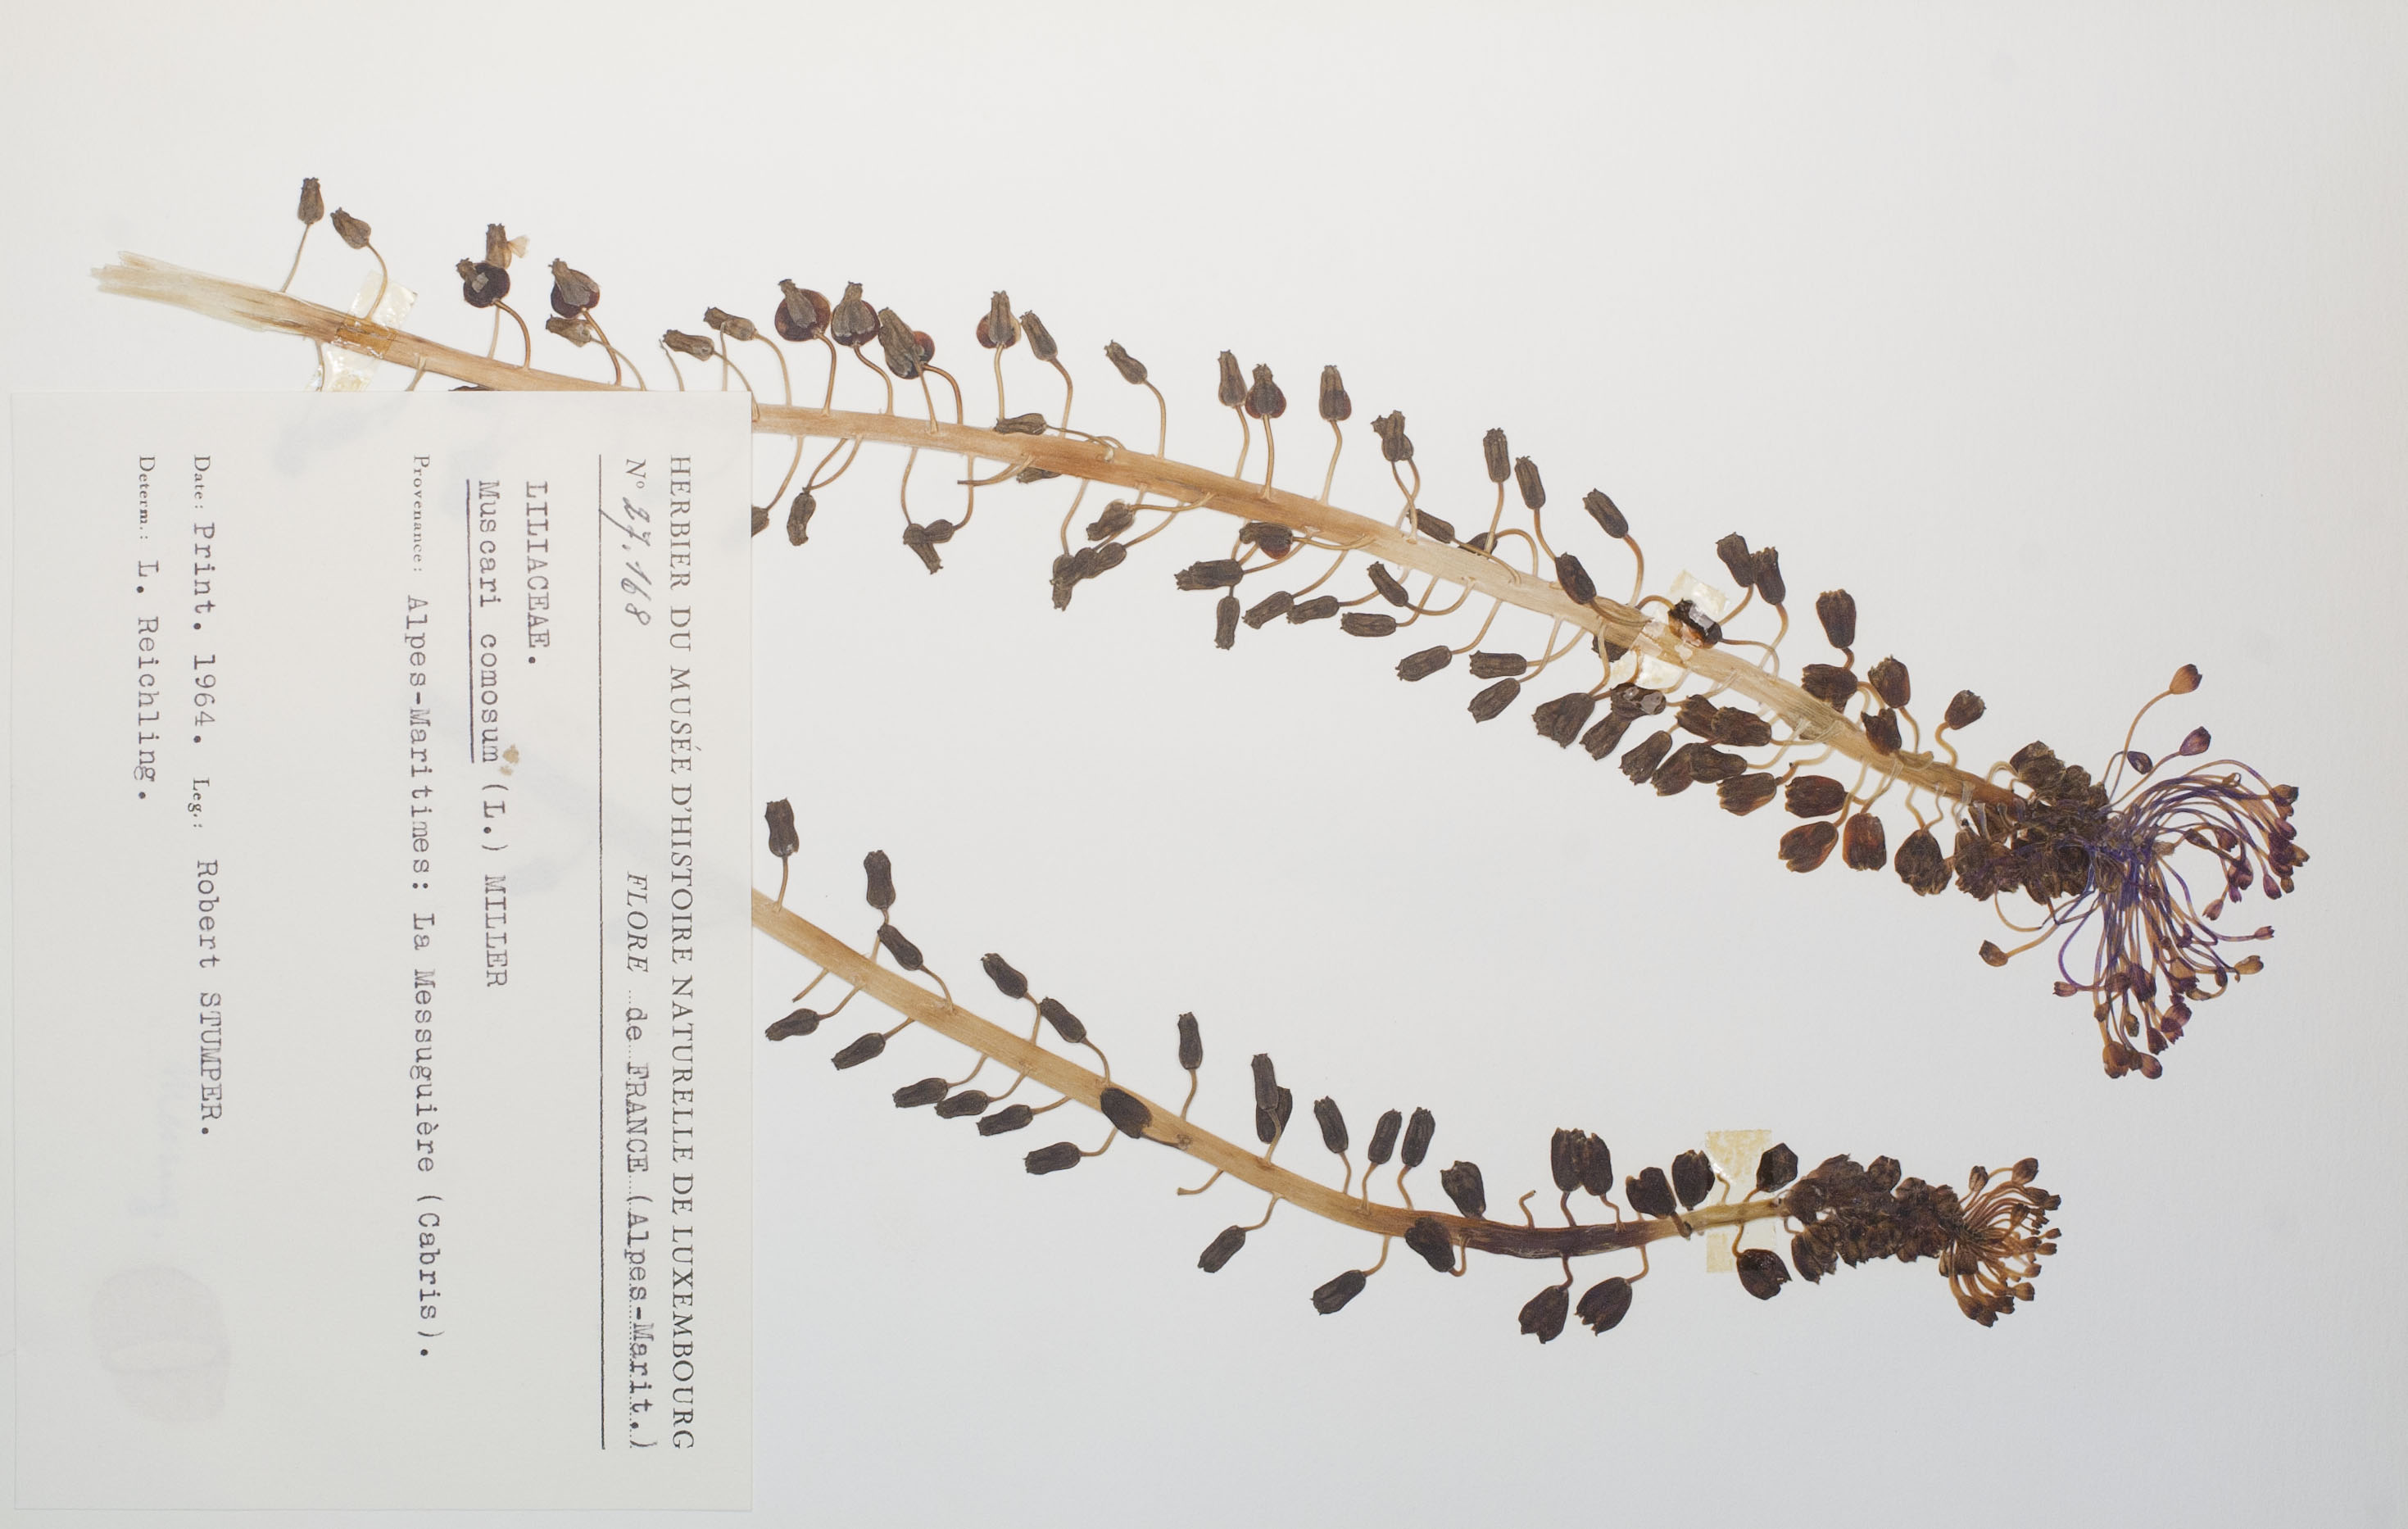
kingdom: Plantae
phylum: Tracheophyta
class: Liliopsida
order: Asparagales
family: Asparagaceae
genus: Muscari
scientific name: Muscari comosum
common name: Tassel hyacinth
